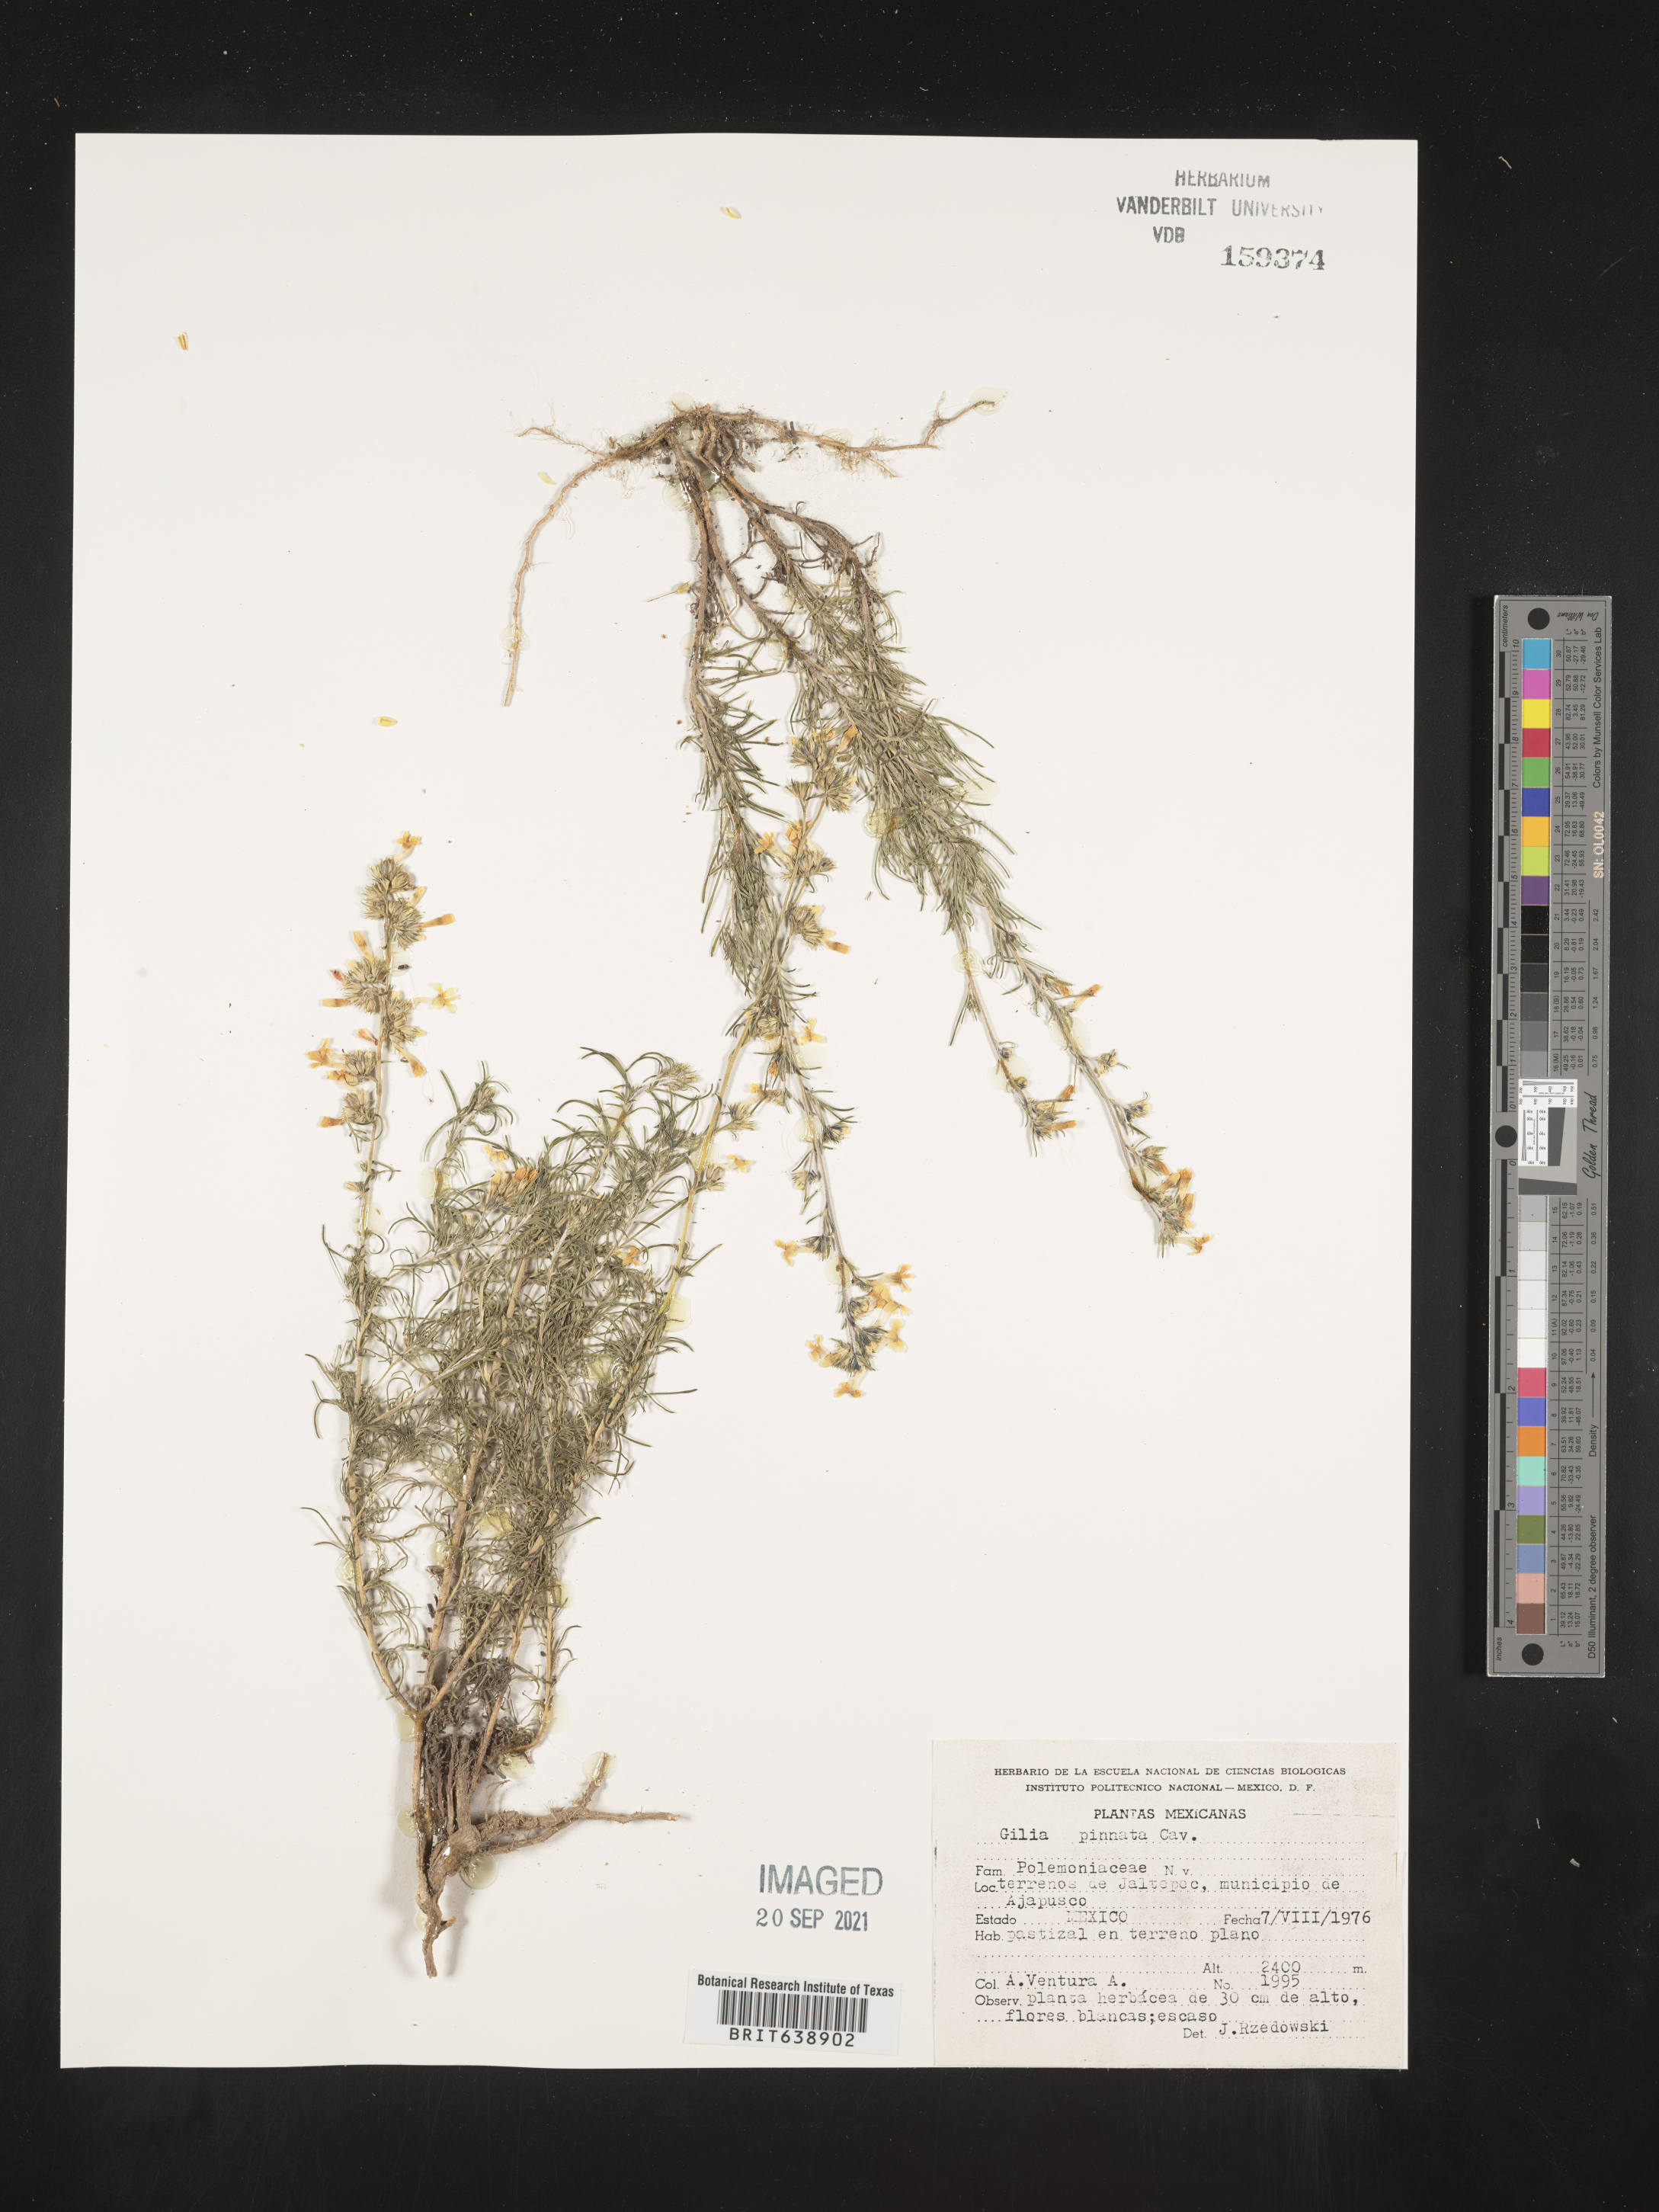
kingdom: Plantae
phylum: Tracheophyta
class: Magnoliopsida
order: Ericales
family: Polemoniaceae
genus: Gilia
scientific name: Gilia
